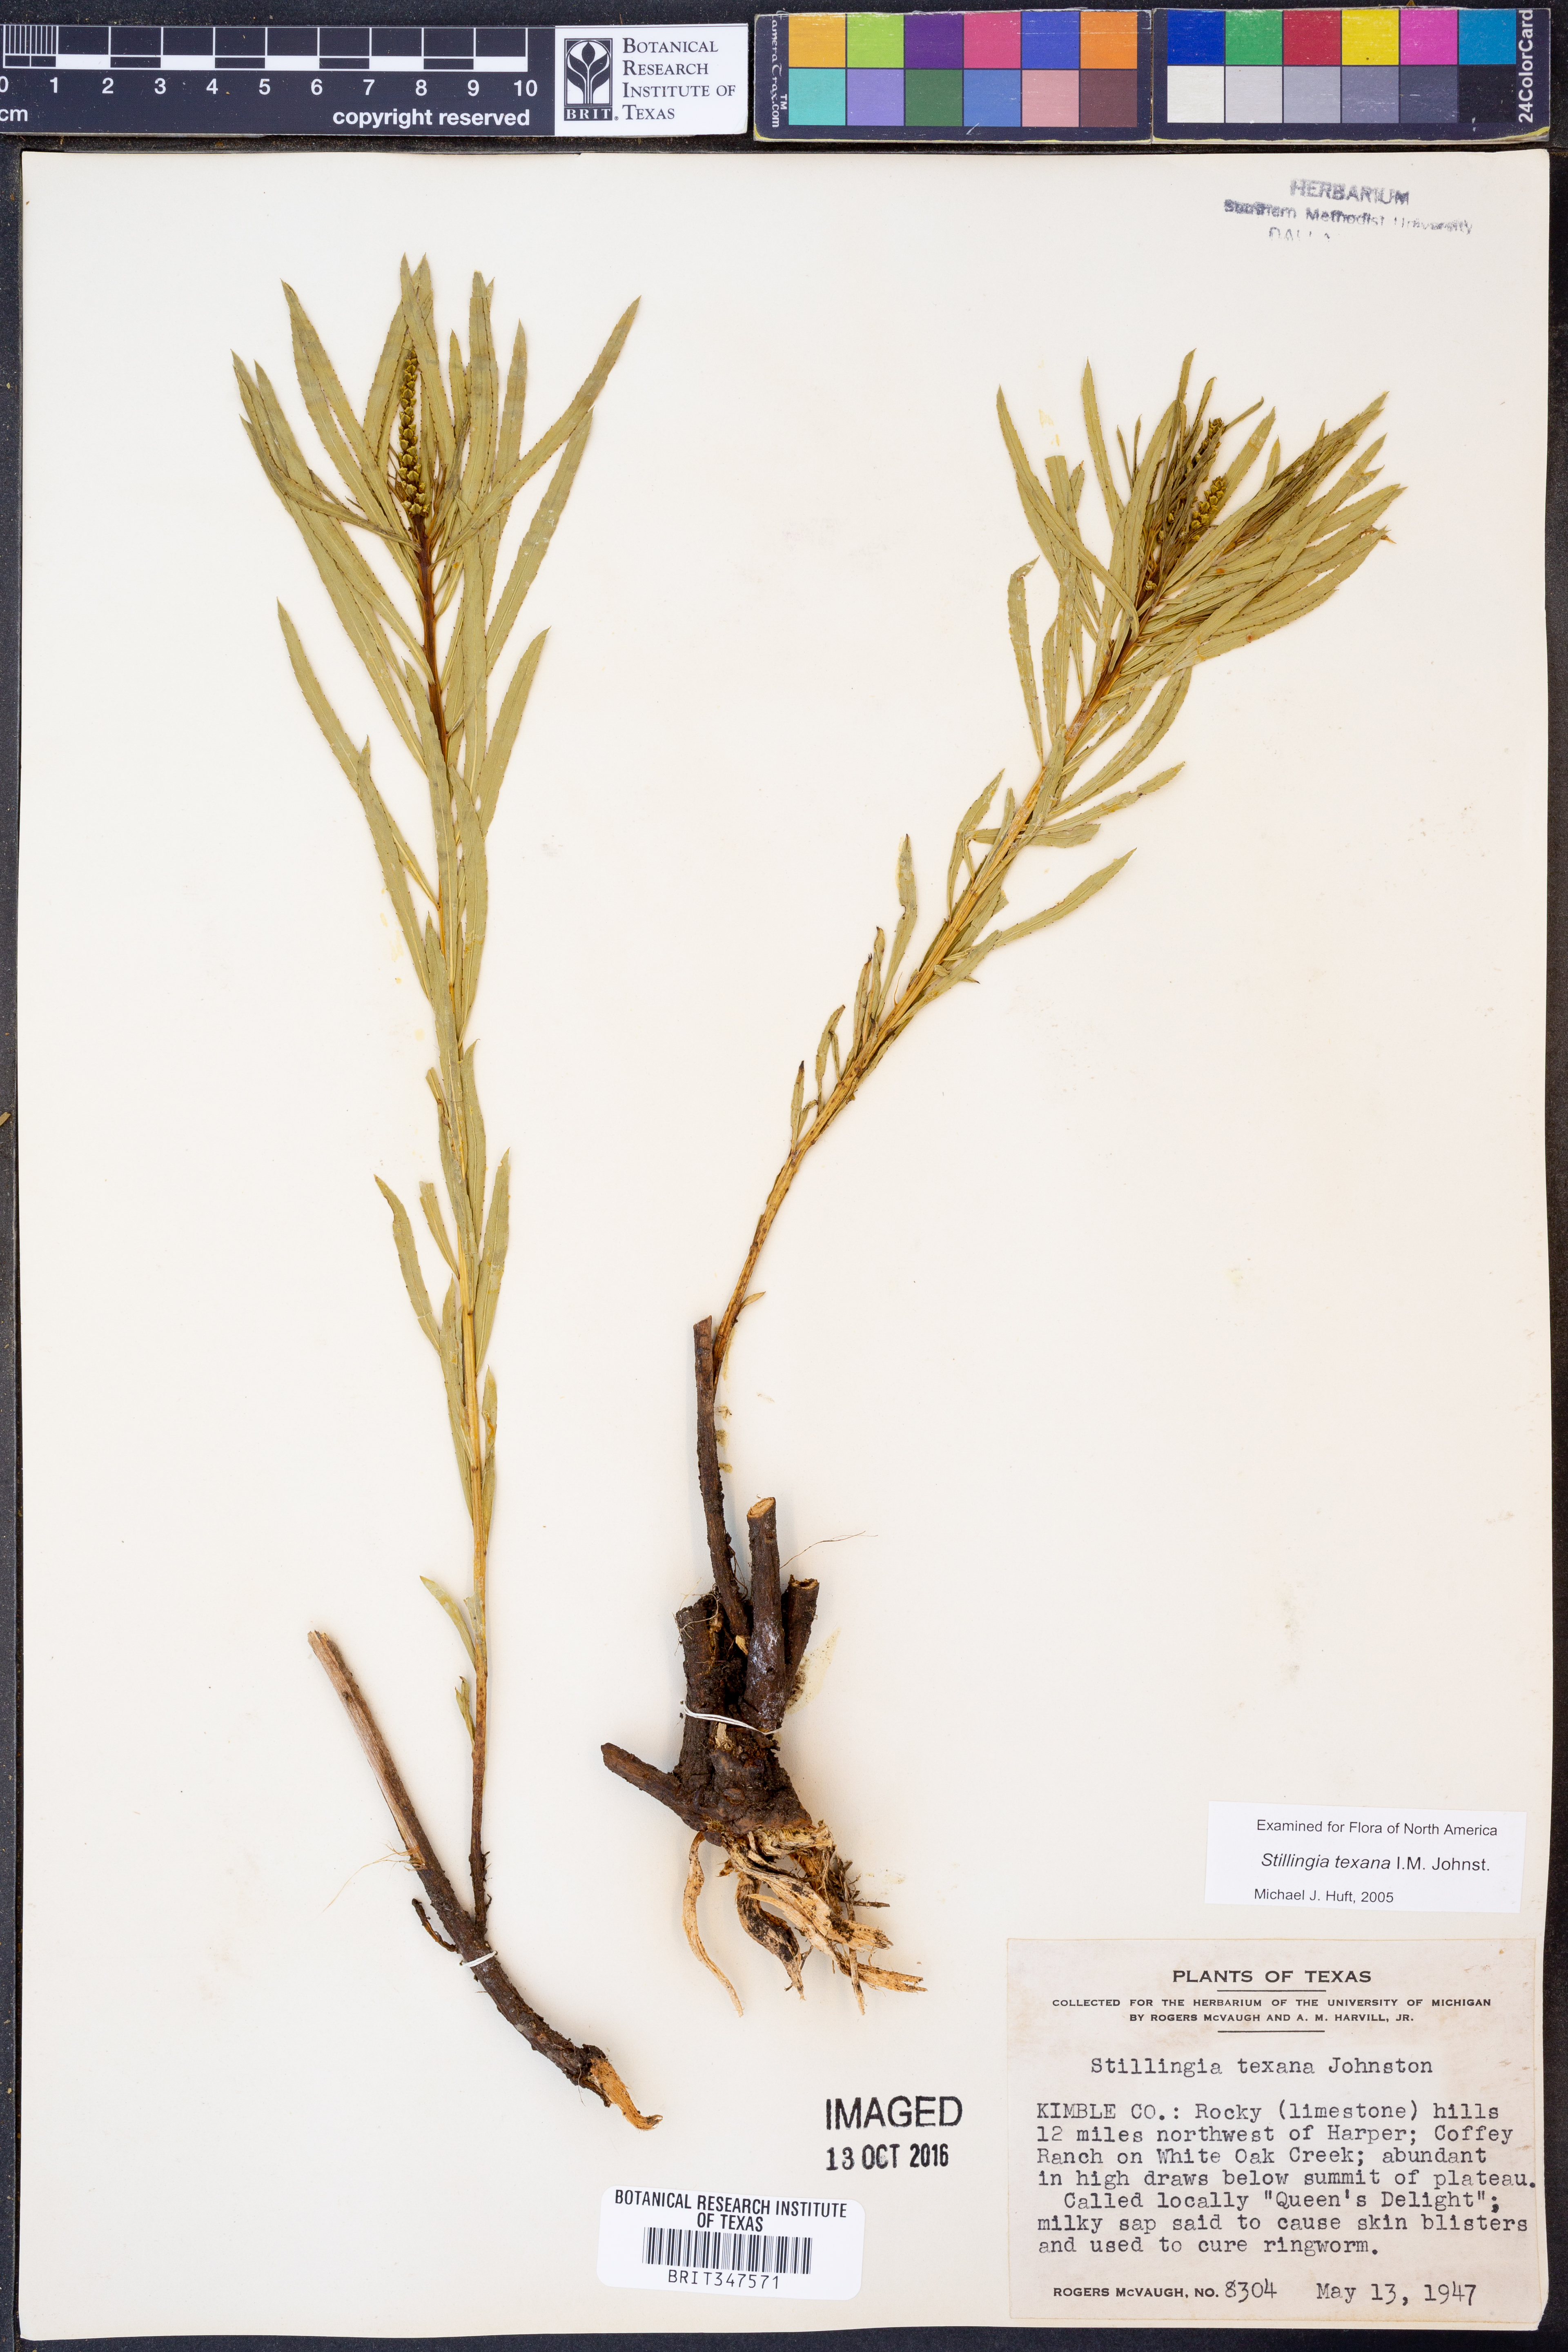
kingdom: Plantae
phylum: Tracheophyta
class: Magnoliopsida
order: Malpighiales
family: Euphorbiaceae
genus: Stillingia
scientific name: Stillingia texana
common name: Texas stillingia
